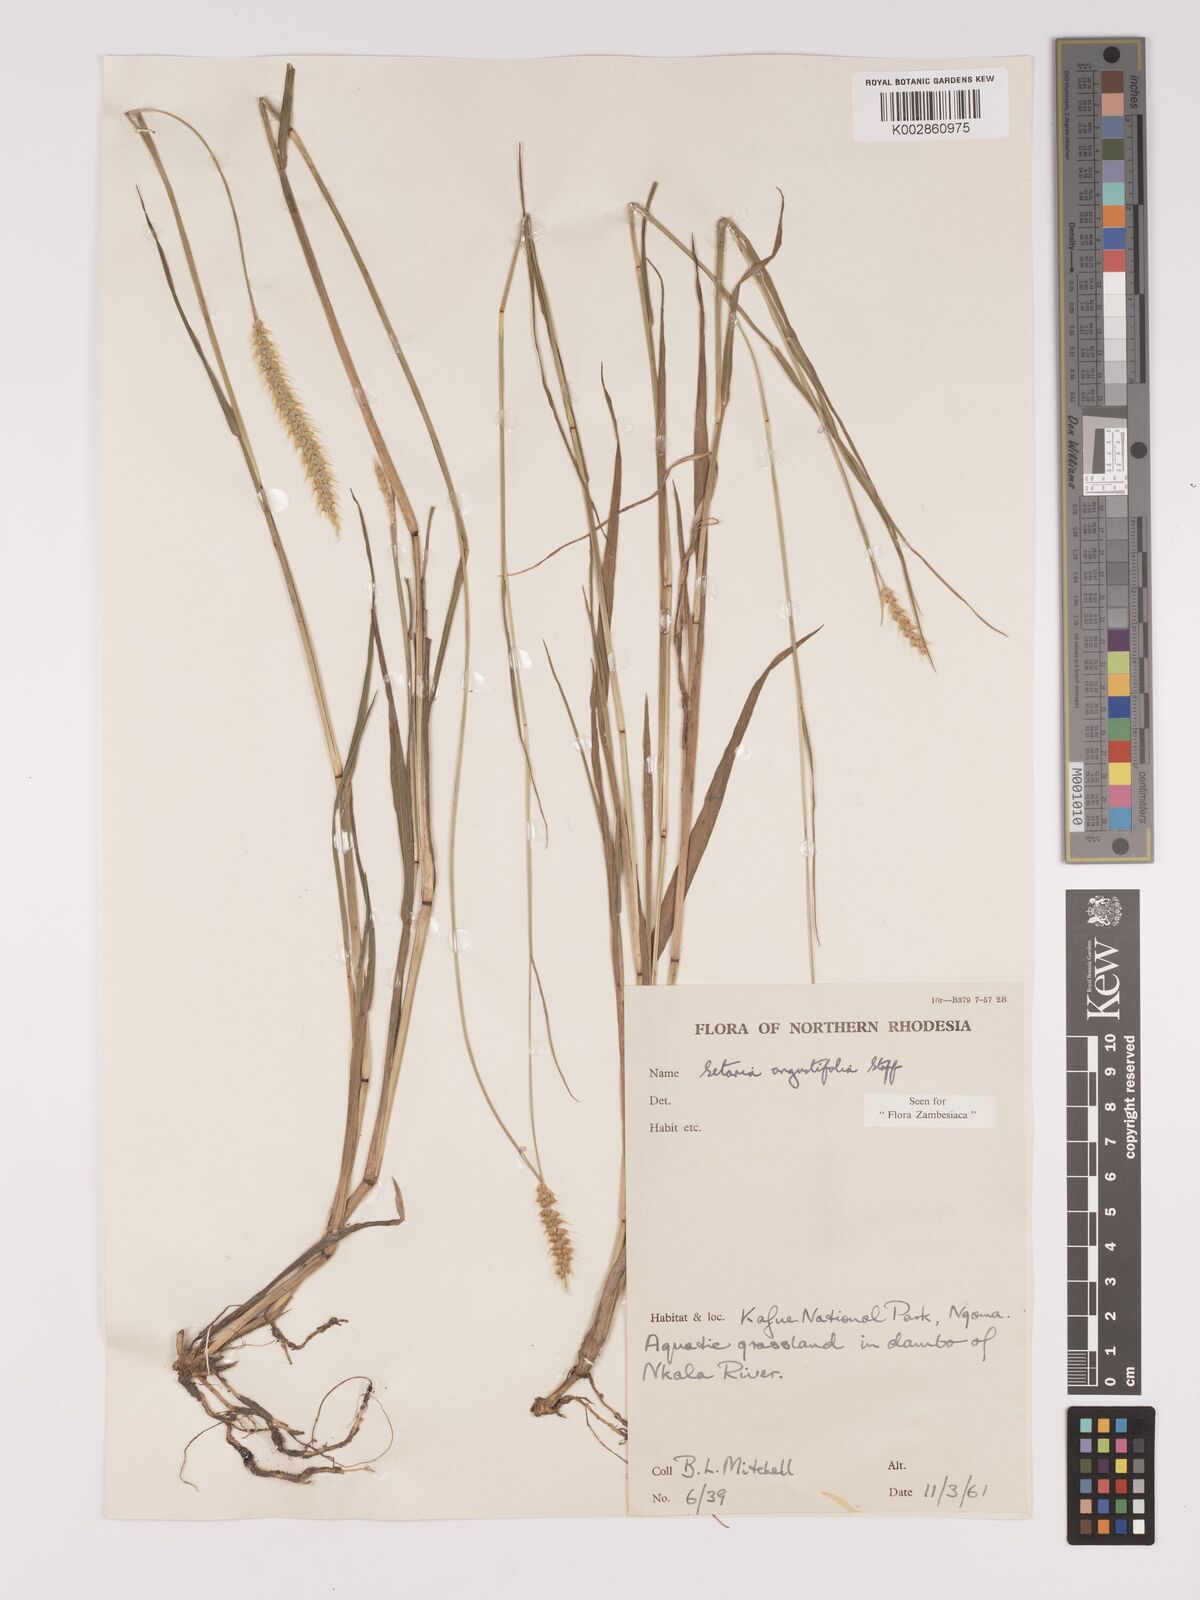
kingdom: Plantae
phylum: Tracheophyta
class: Liliopsida
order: Poales
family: Poaceae
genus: Setaria
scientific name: Setaria
